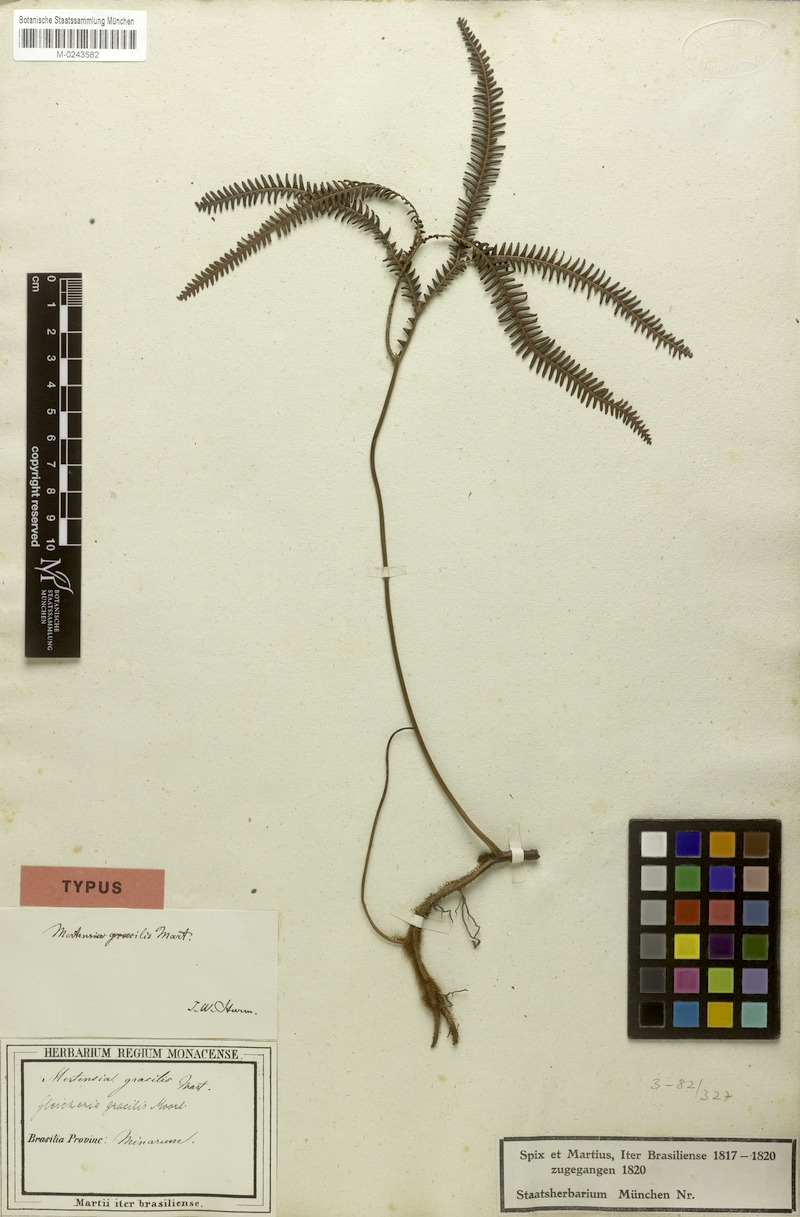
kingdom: Plantae
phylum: Tracheophyta
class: Polypodiopsida
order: Gleicheniales
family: Gleicheniaceae
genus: Sticherus
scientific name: Sticherus gracilis
